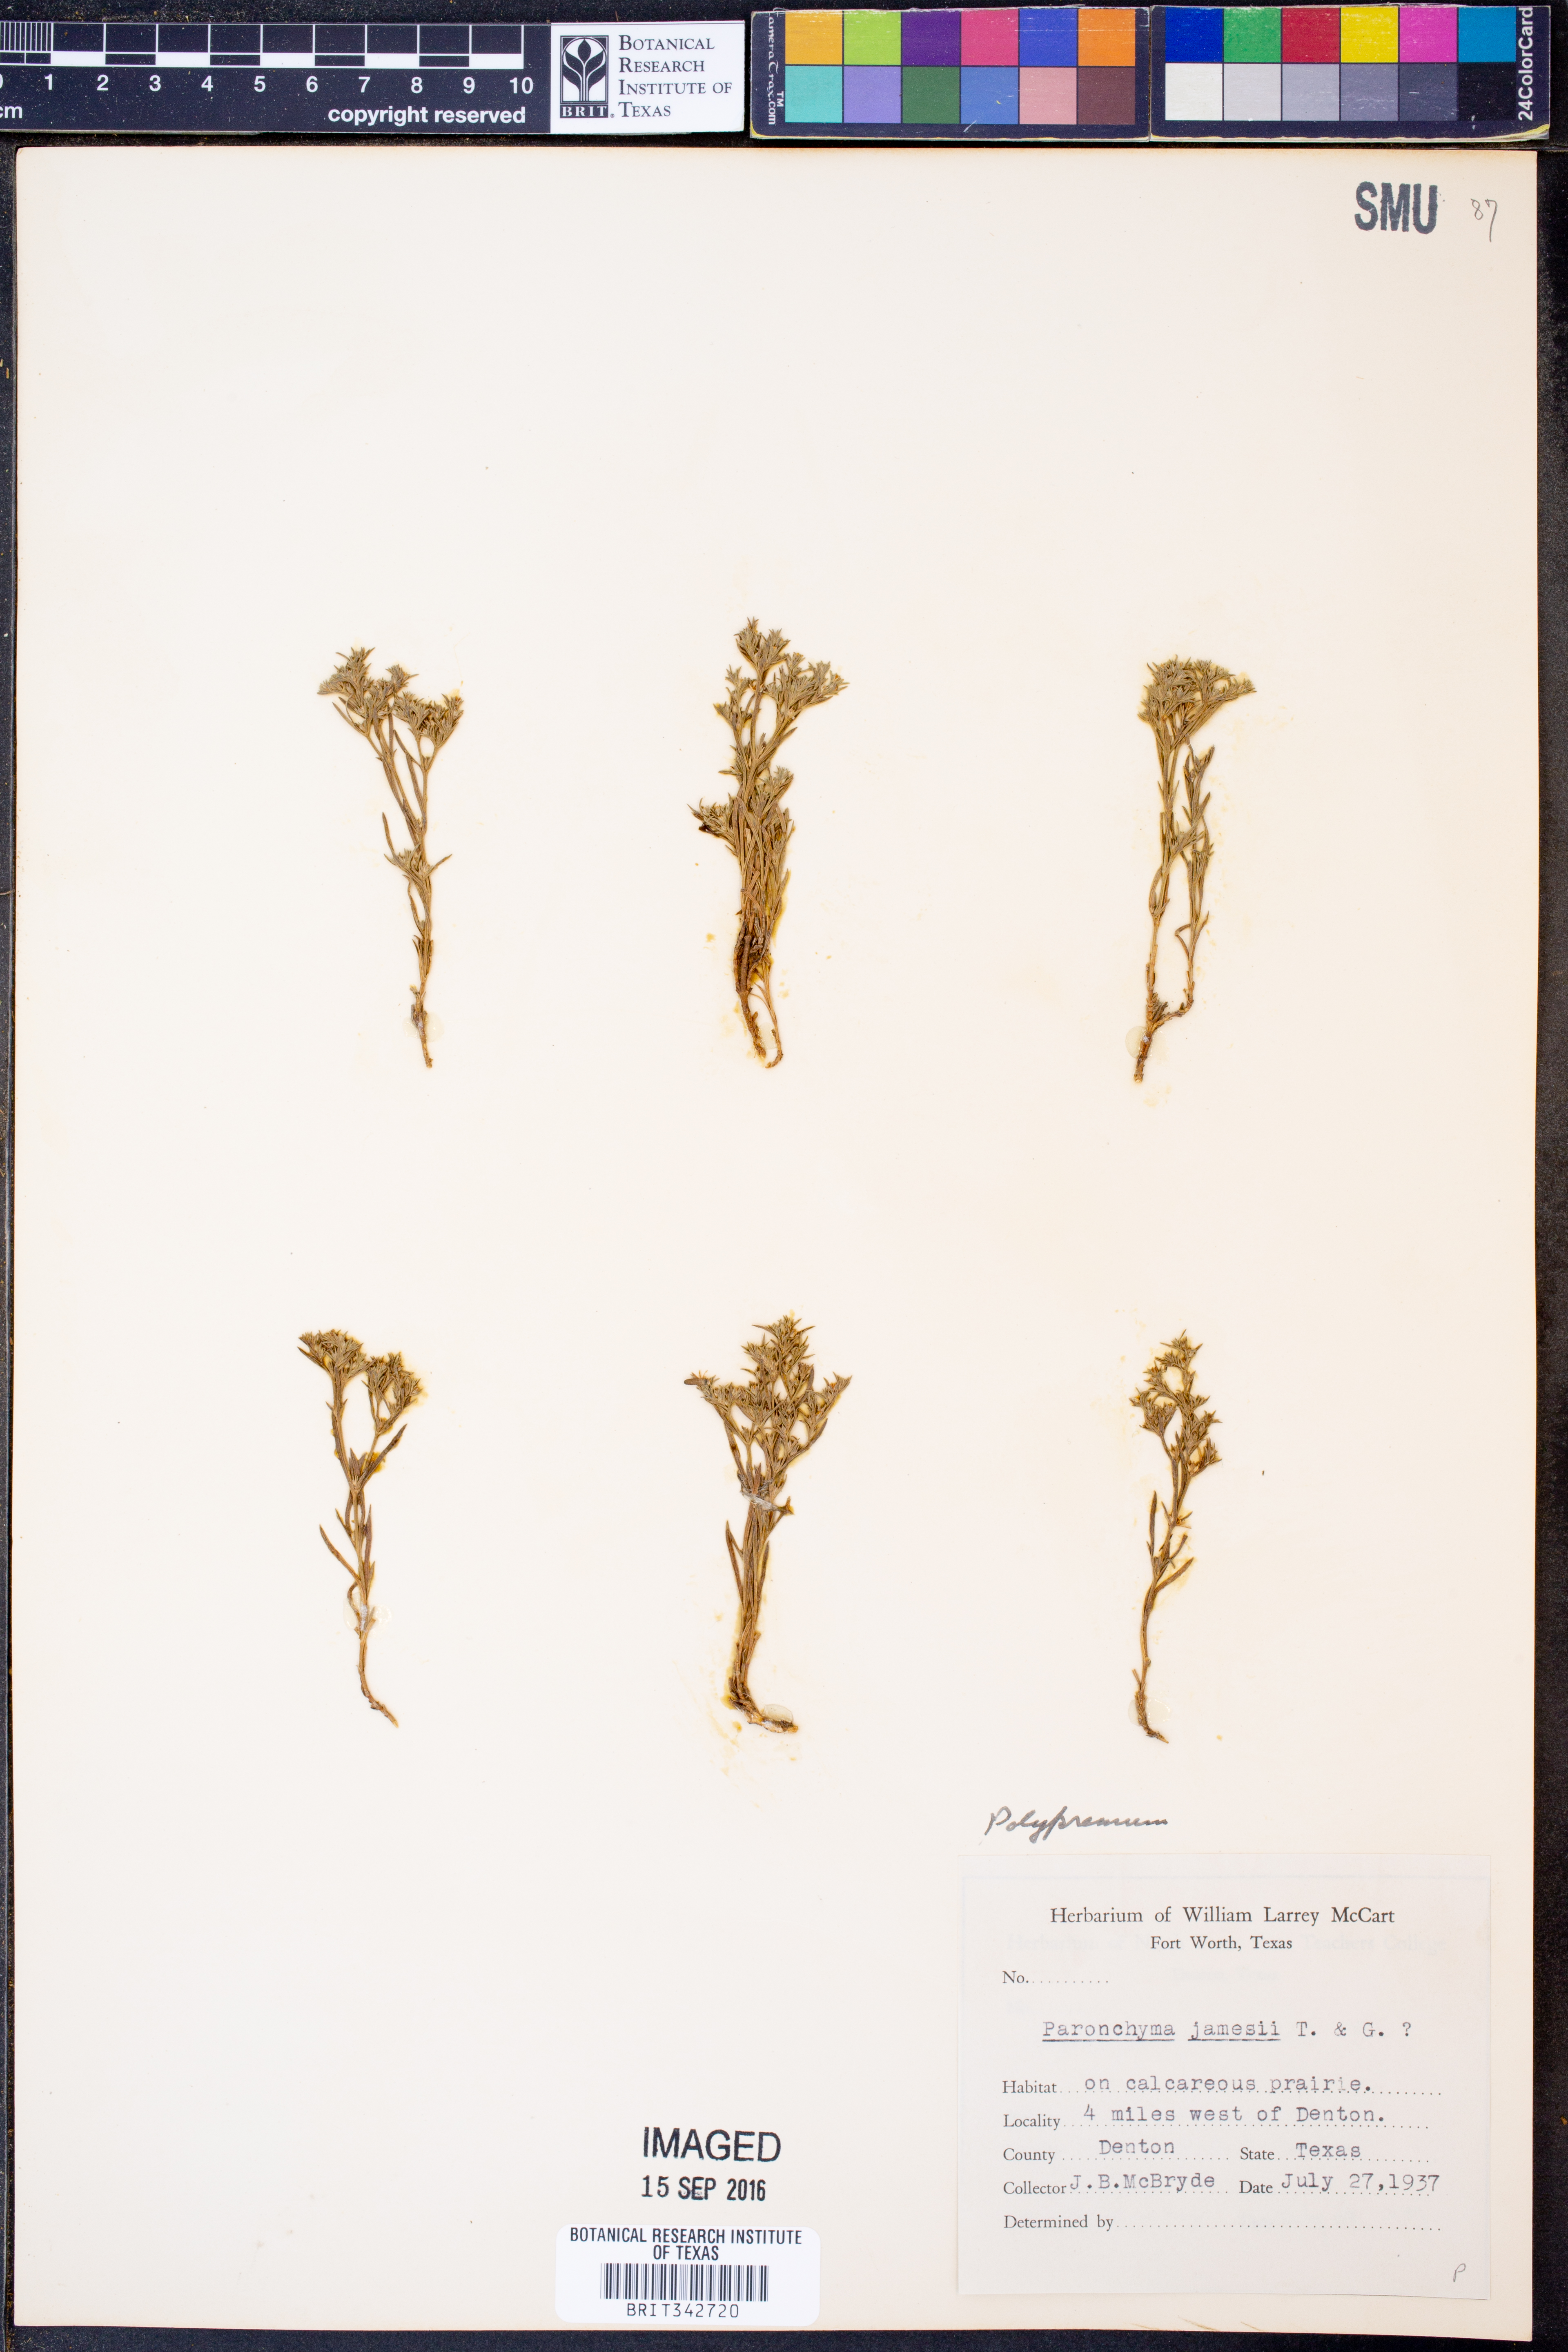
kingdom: Plantae
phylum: Tracheophyta
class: Magnoliopsida
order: Lamiales
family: Tetrachondraceae
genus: Polypremum
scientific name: Polypremum
